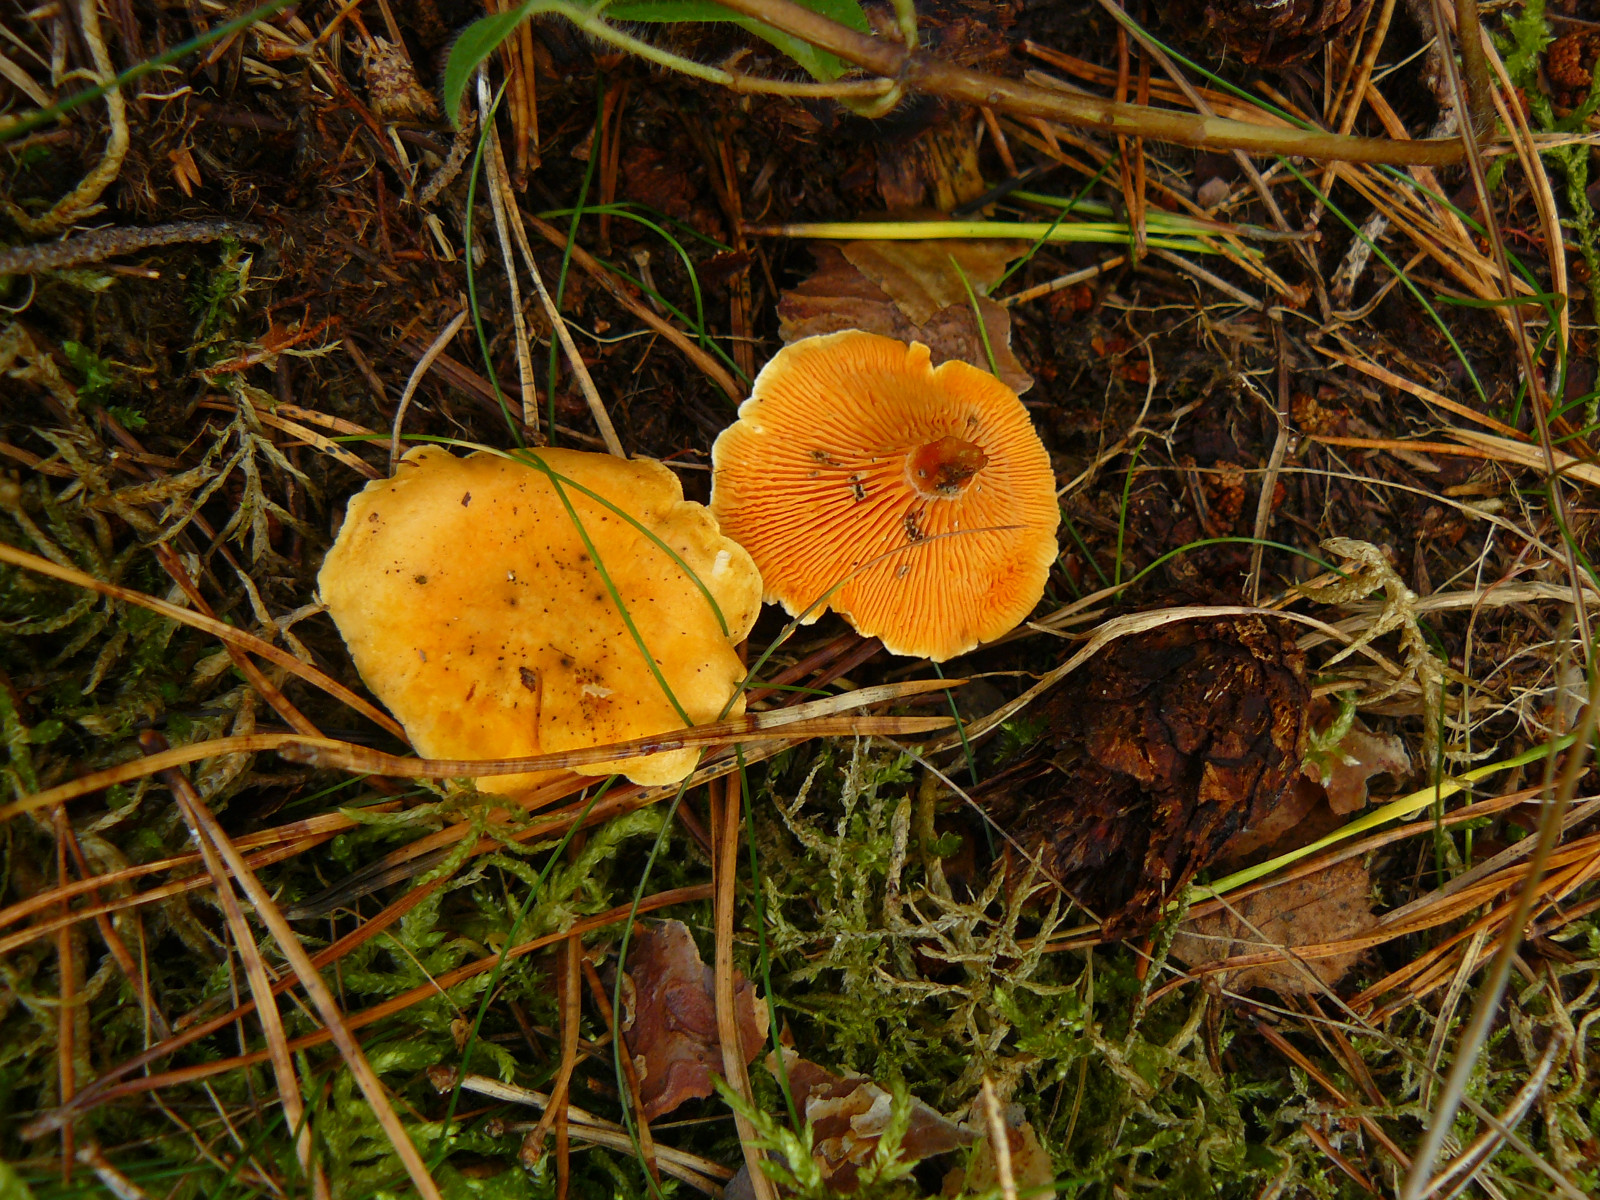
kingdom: Fungi
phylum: Basidiomycota
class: Agaricomycetes
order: Boletales
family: Hygrophoropsidaceae
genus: Hygrophoropsis
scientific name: Hygrophoropsis aurantiaca
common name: almindelig orangekantarel
